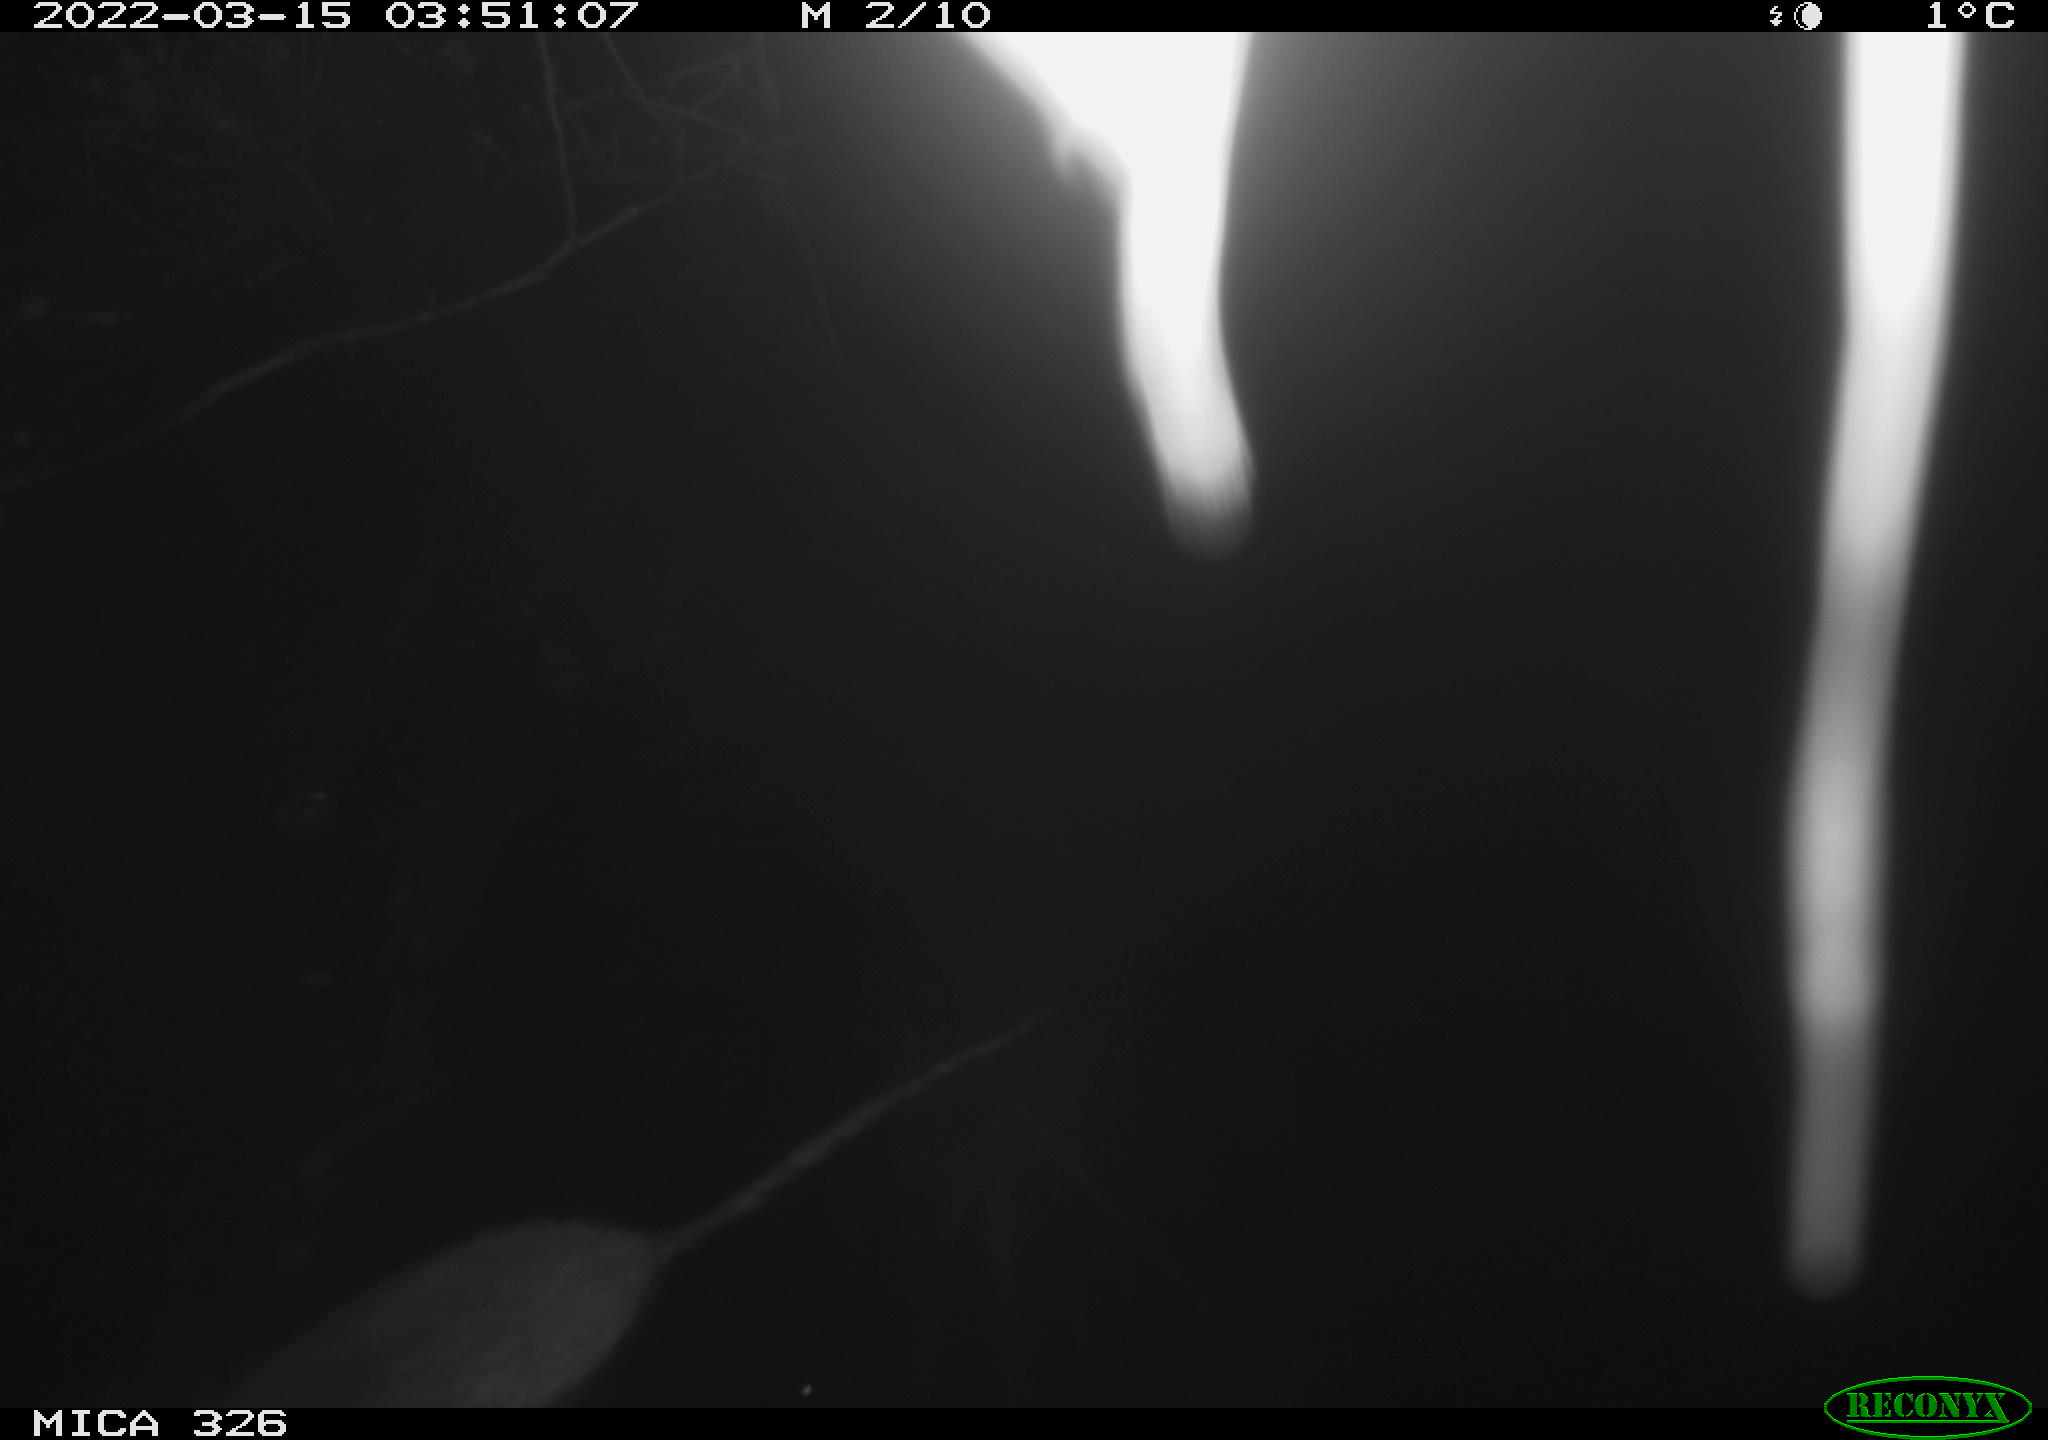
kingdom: Animalia
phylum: Chordata
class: Mammalia
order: Rodentia
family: Muridae
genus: Rattus
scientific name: Rattus norvegicus
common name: Brown rat
